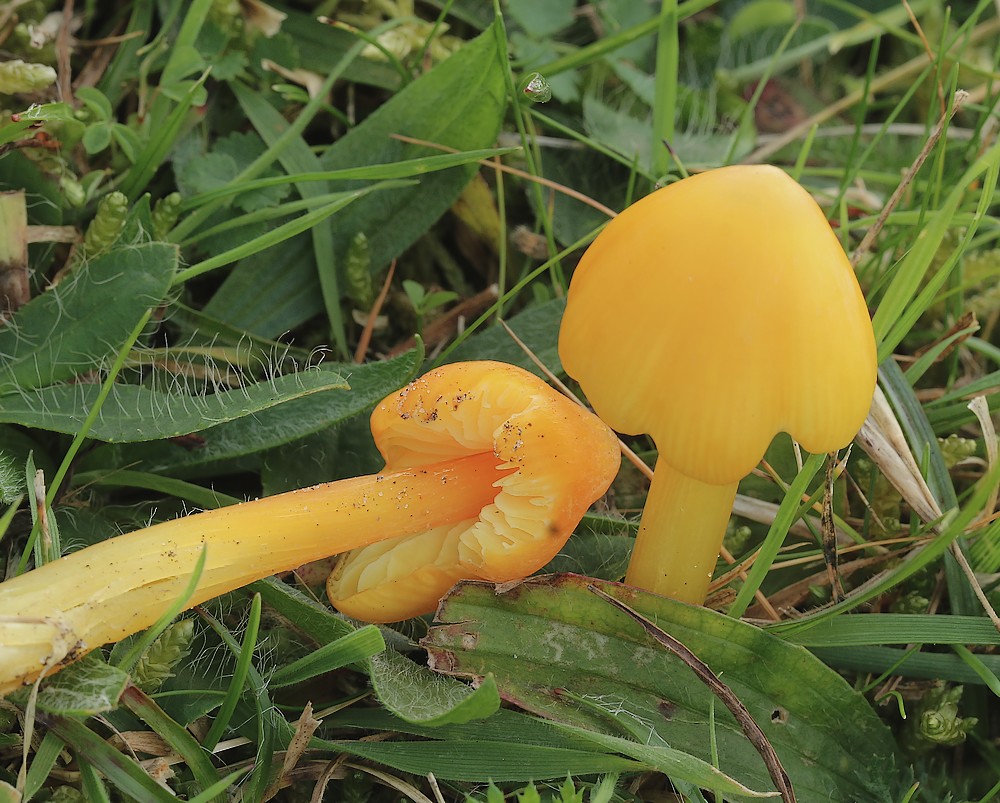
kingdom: Fungi
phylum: Basidiomycota
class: Agaricomycetes
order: Agaricales
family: Hygrophoraceae
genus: Hygrocybe
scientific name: Hygrocybe acutoconica
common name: spidspuklet vokshat
